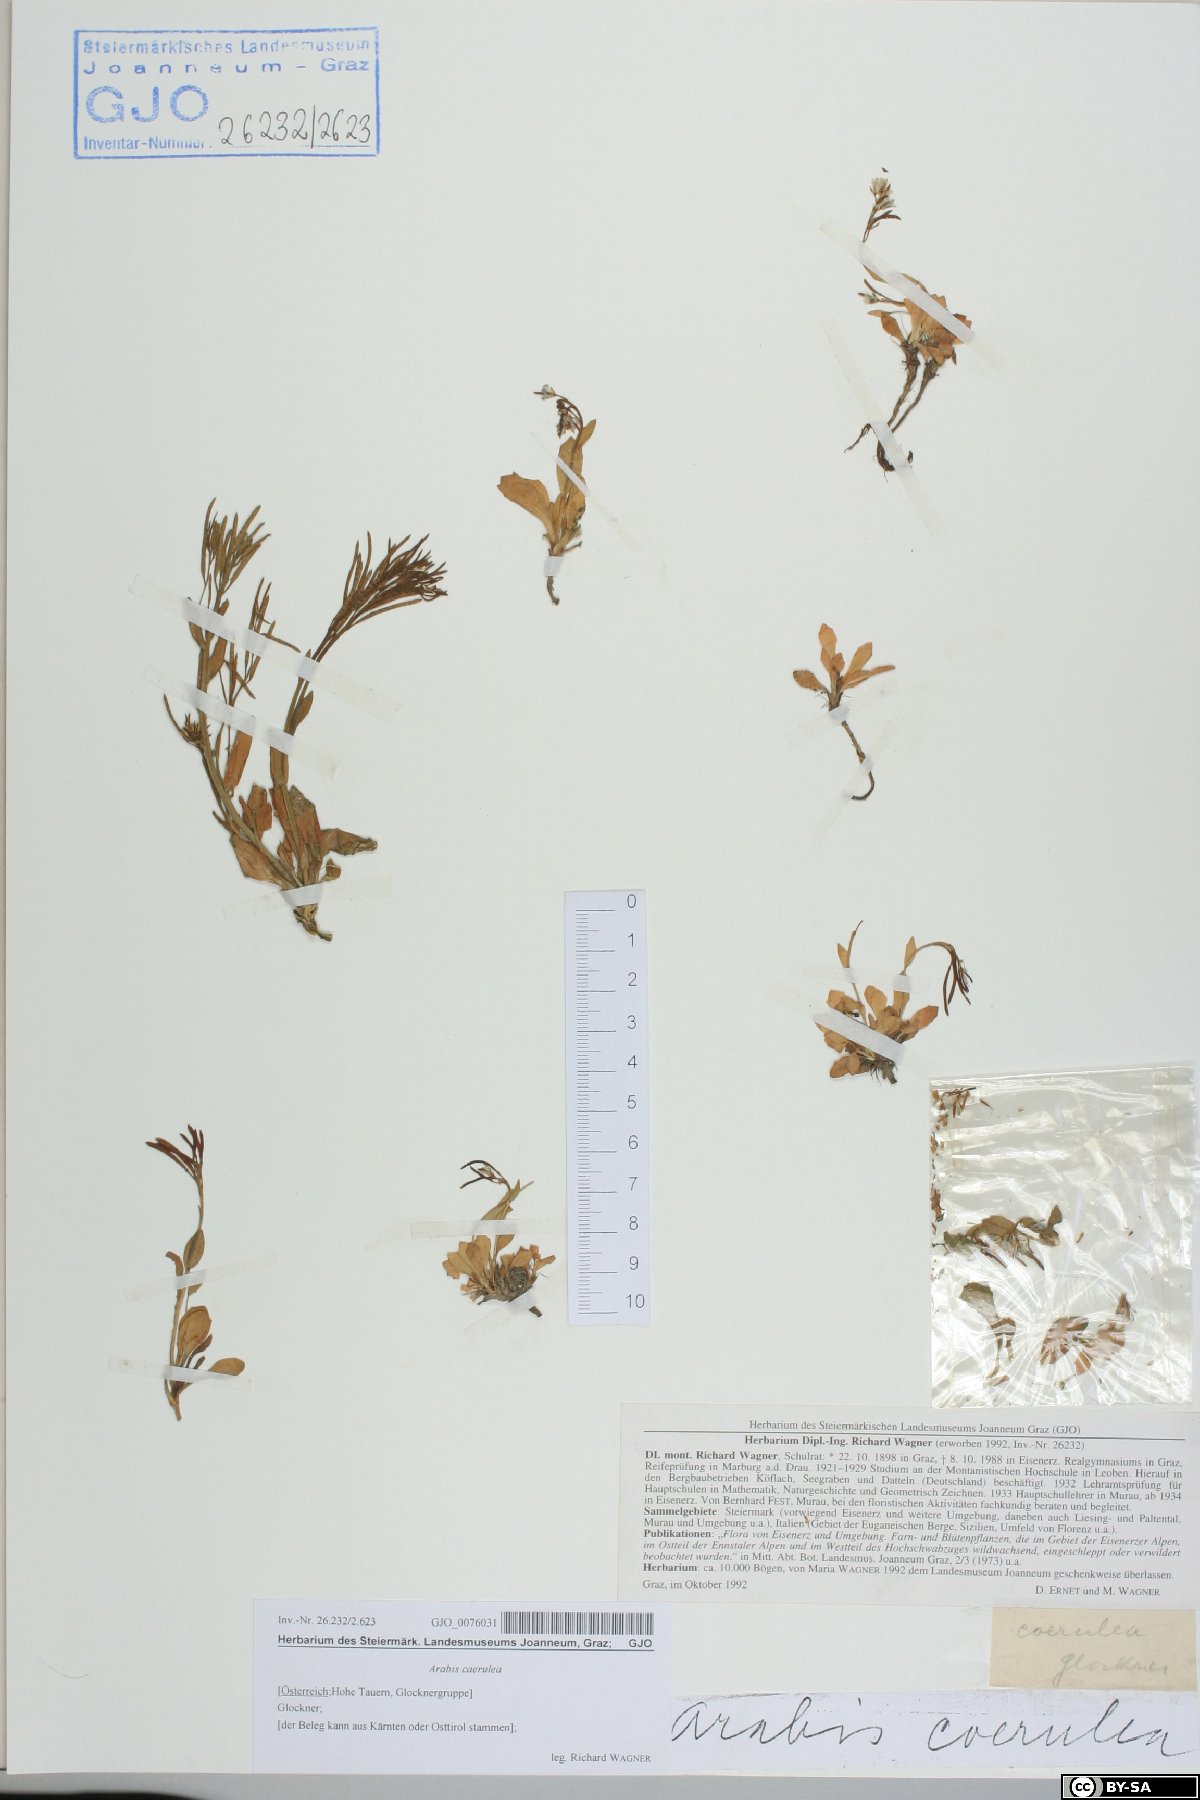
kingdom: Plantae
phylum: Tracheophyta
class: Magnoliopsida
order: Brassicales
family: Brassicaceae
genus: Arabis
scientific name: Arabis caerulea
